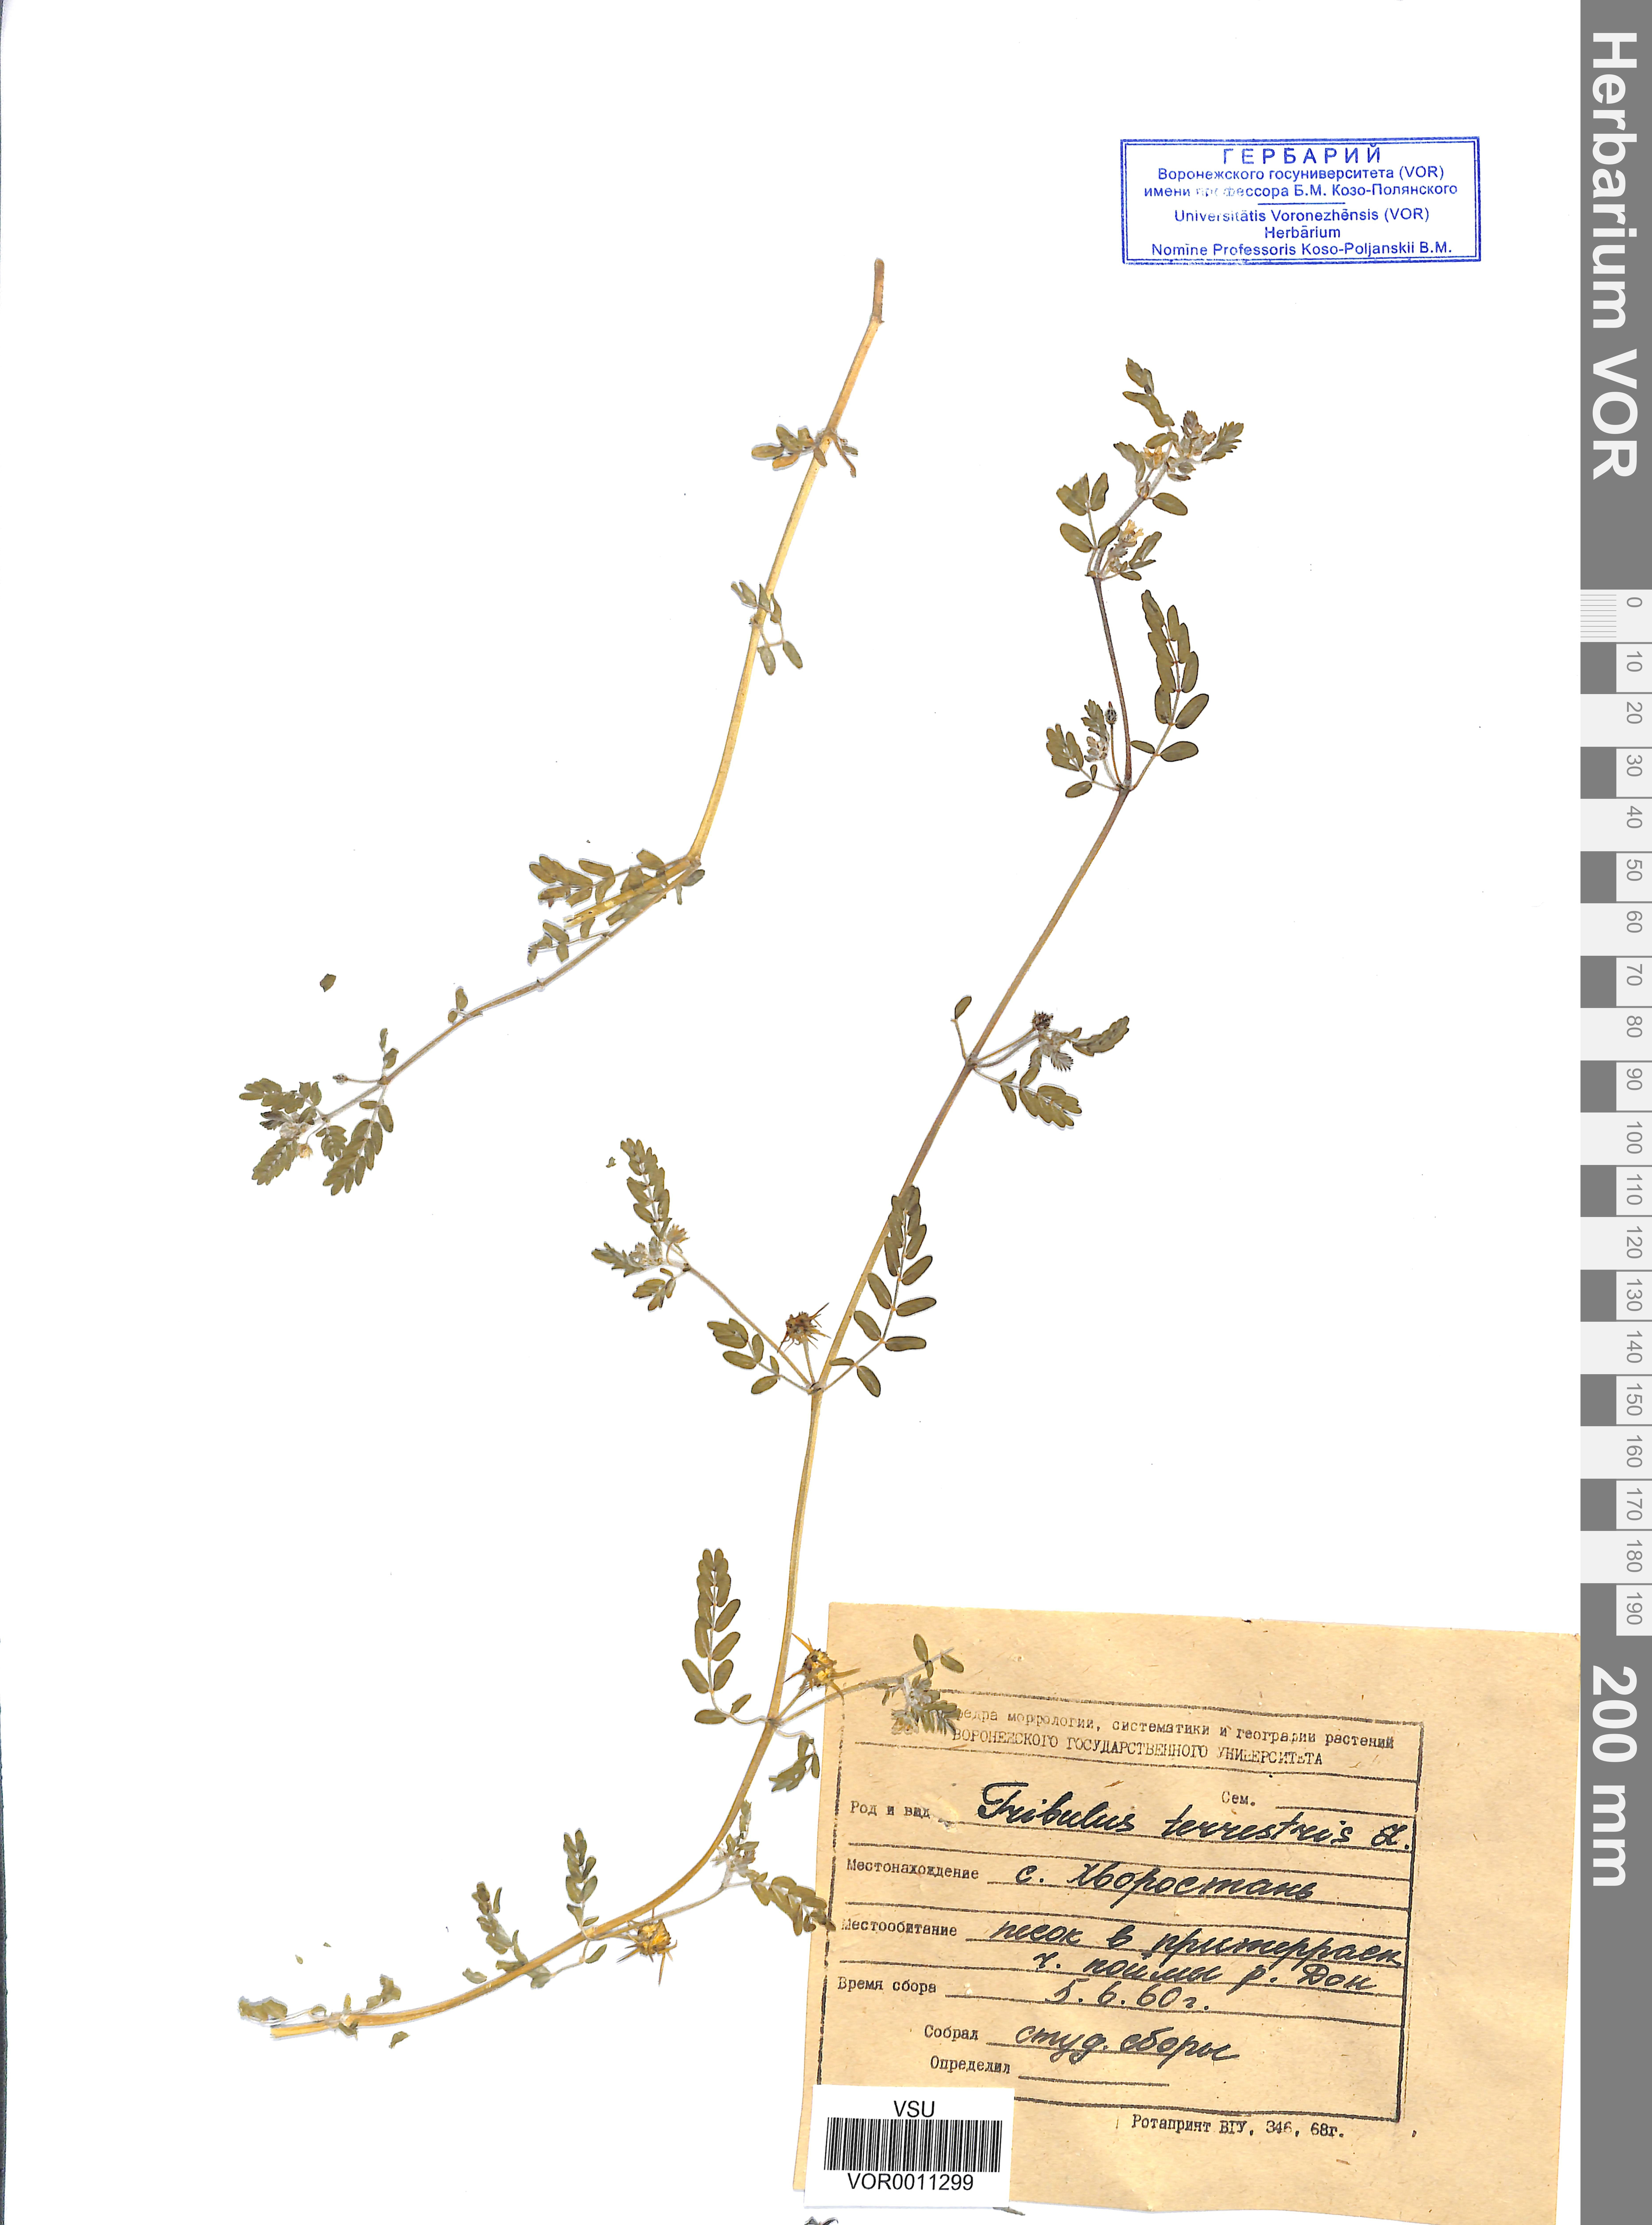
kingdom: Plantae
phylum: Tracheophyta
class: Magnoliopsida
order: Zygophyllales
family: Zygophyllaceae
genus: Tribulus
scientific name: Tribulus terrestris
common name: Puncturevine
